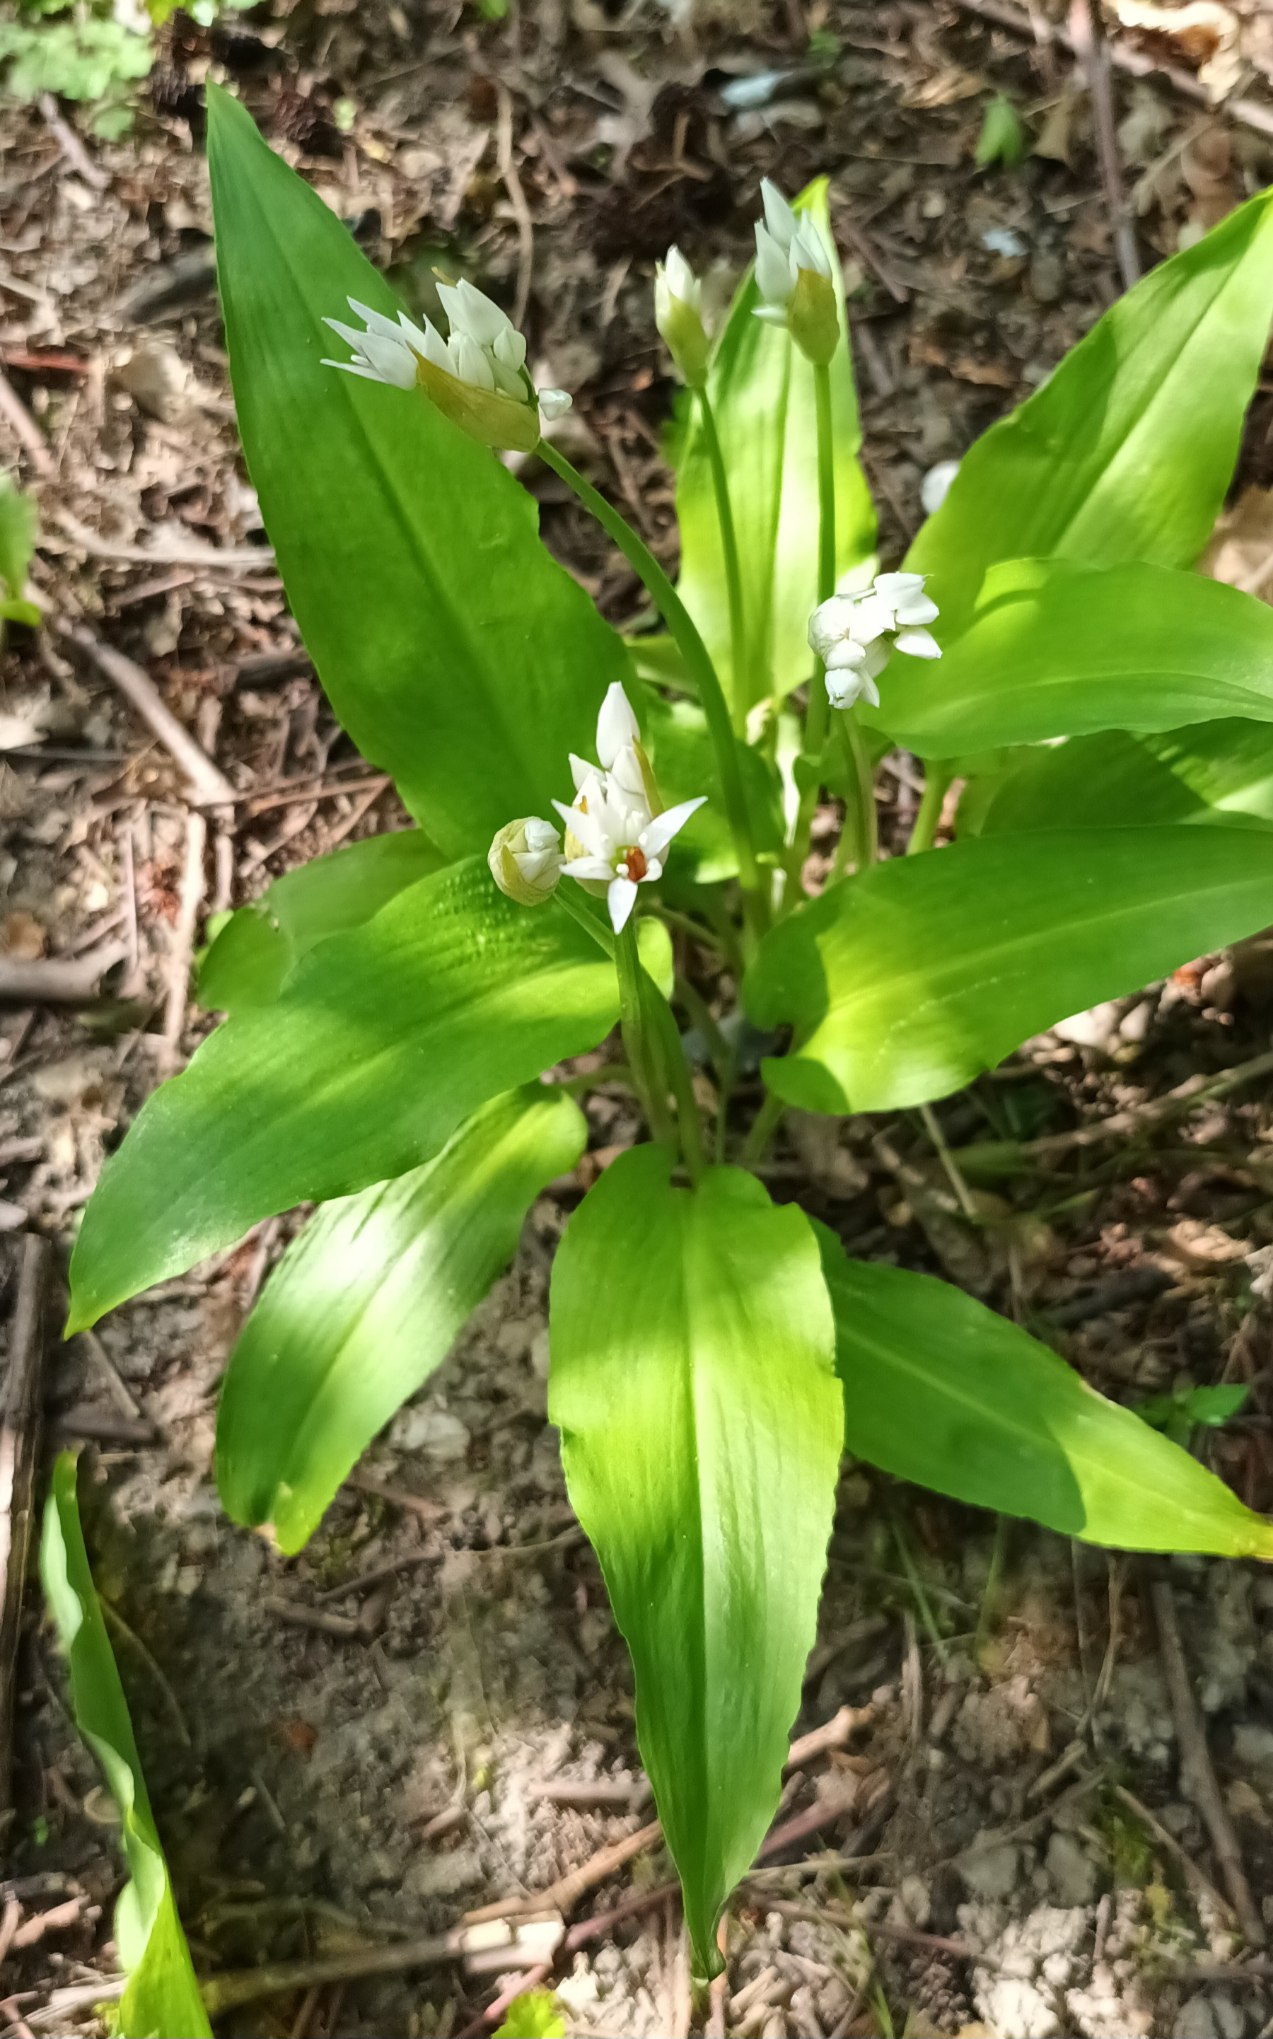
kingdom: Plantae
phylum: Tracheophyta
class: Liliopsida
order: Asparagales
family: Amaryllidaceae
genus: Allium
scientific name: Allium ursinum
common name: Rams-løg
